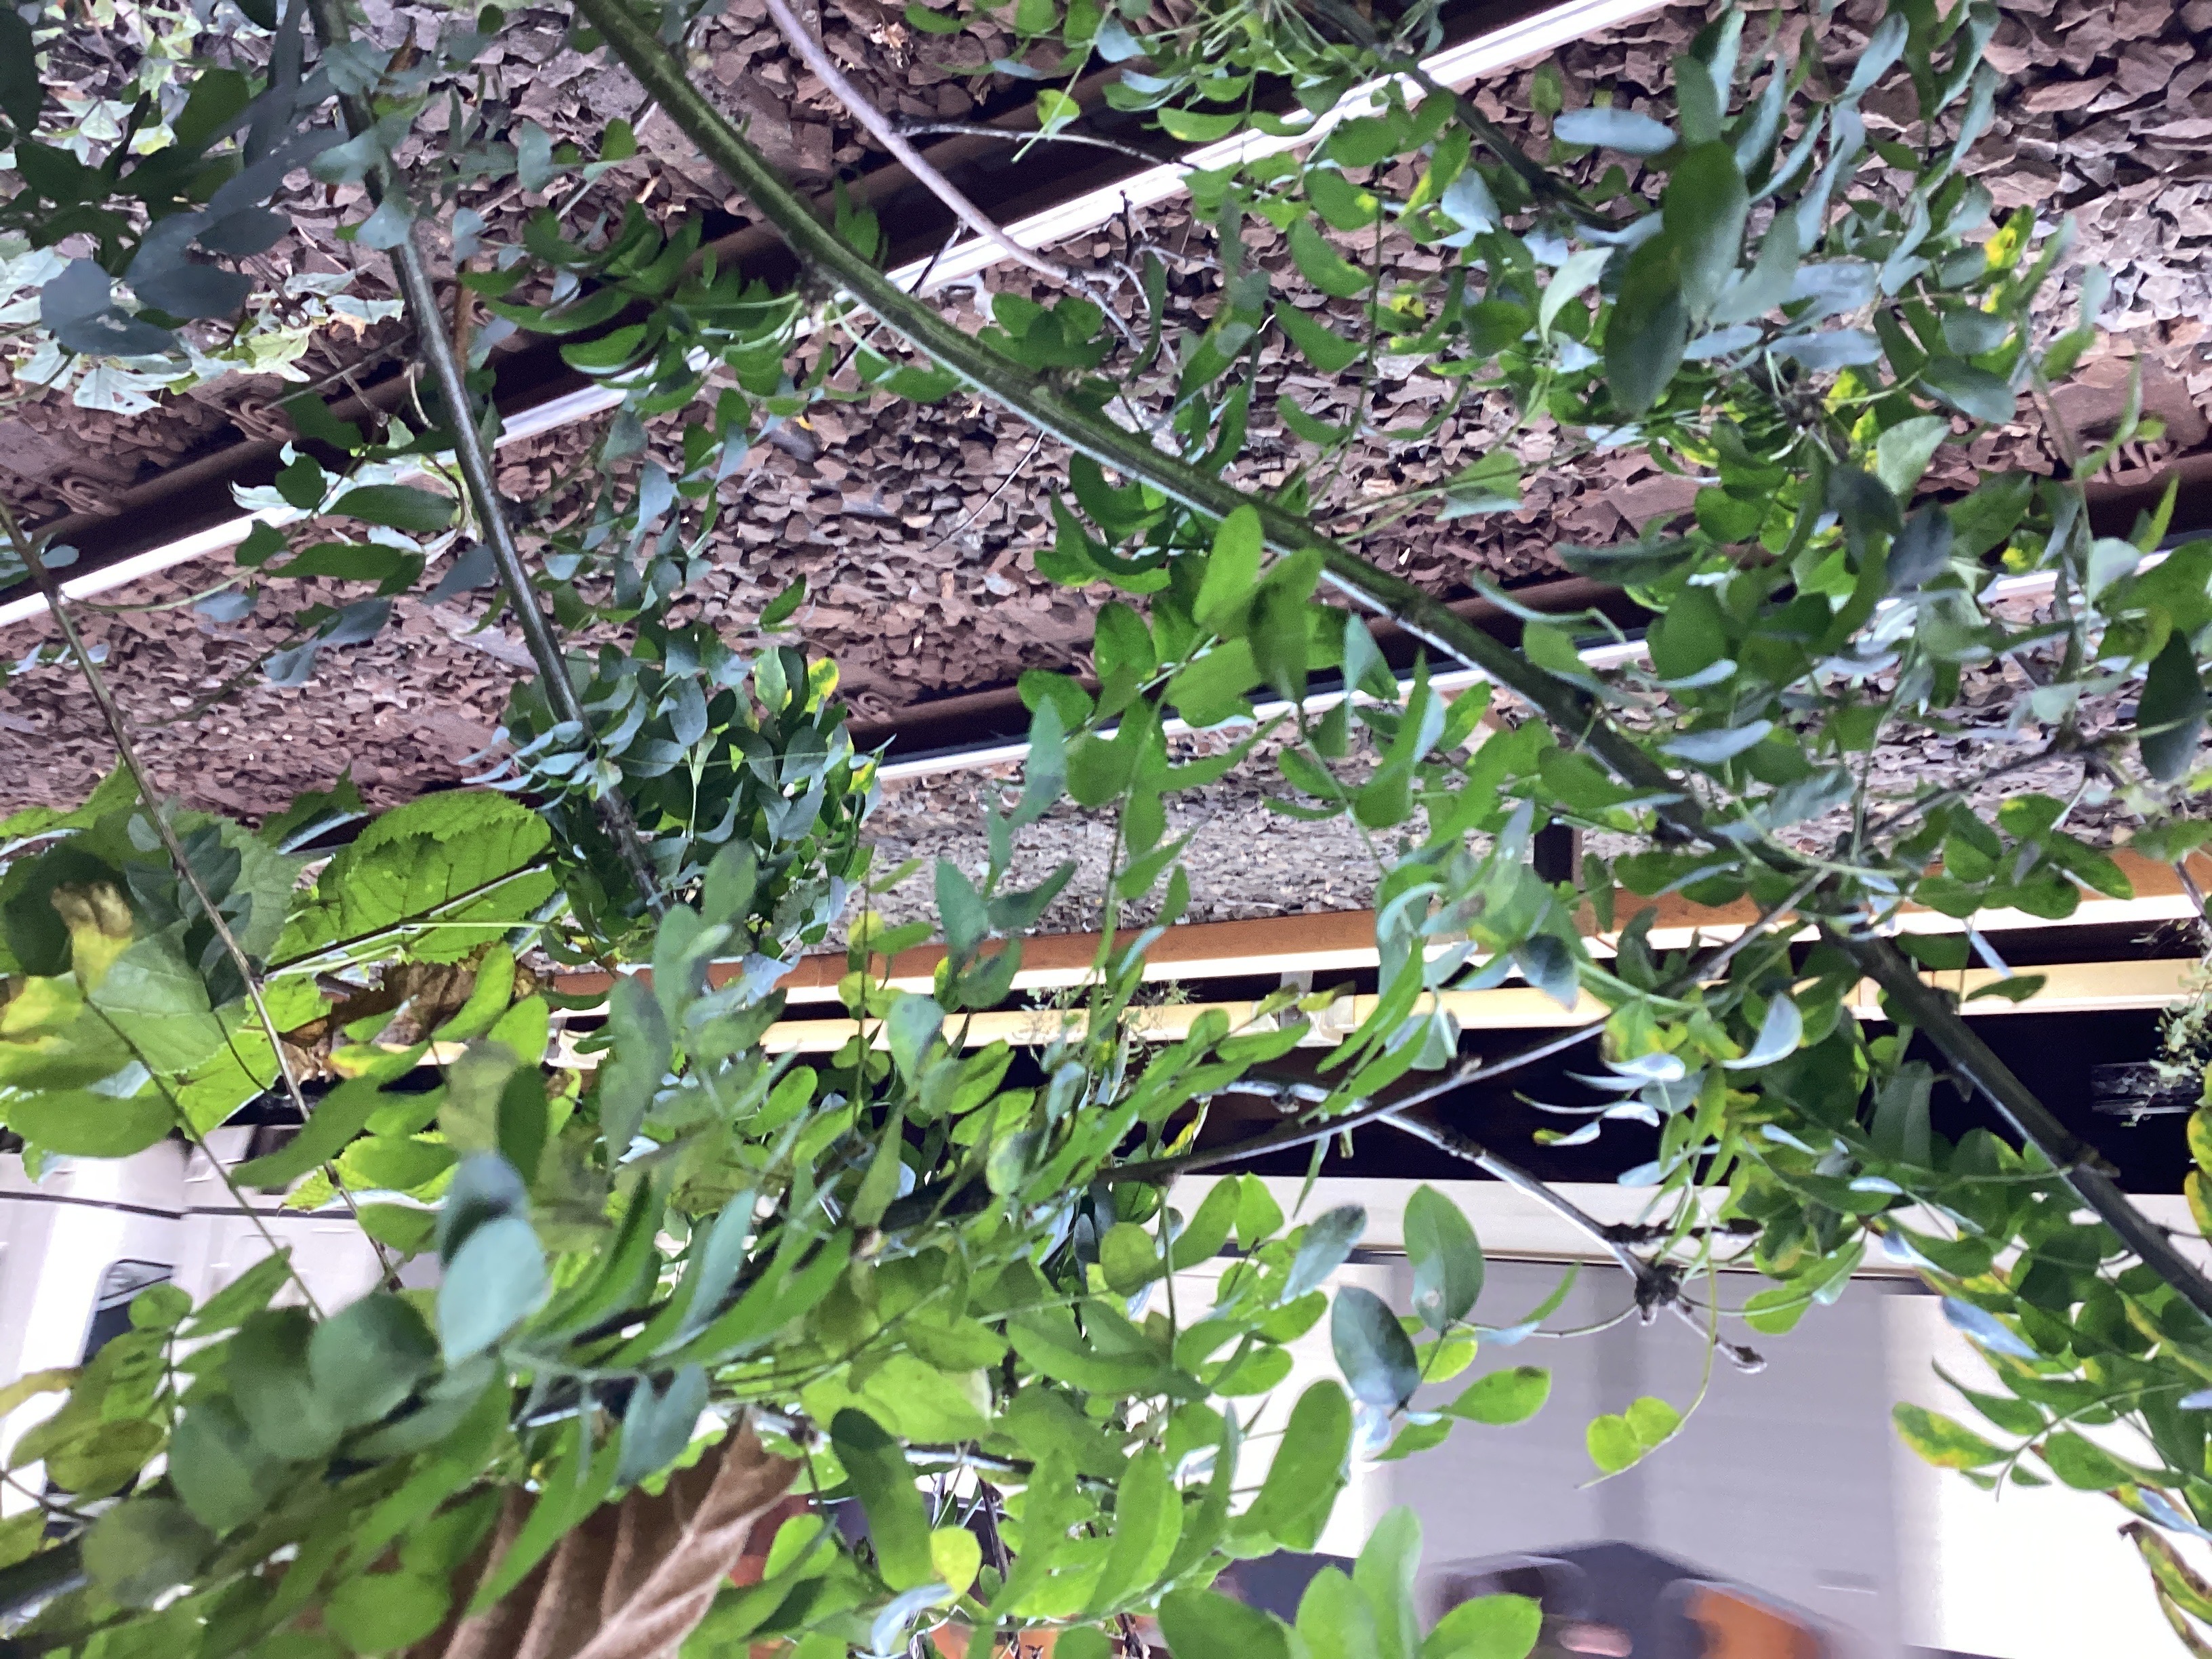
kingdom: Plantae
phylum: Tracheophyta
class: Magnoliopsida
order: Fabales
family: Fabaceae
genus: Caragana
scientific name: Caragana arborescens
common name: sibirertebusk
